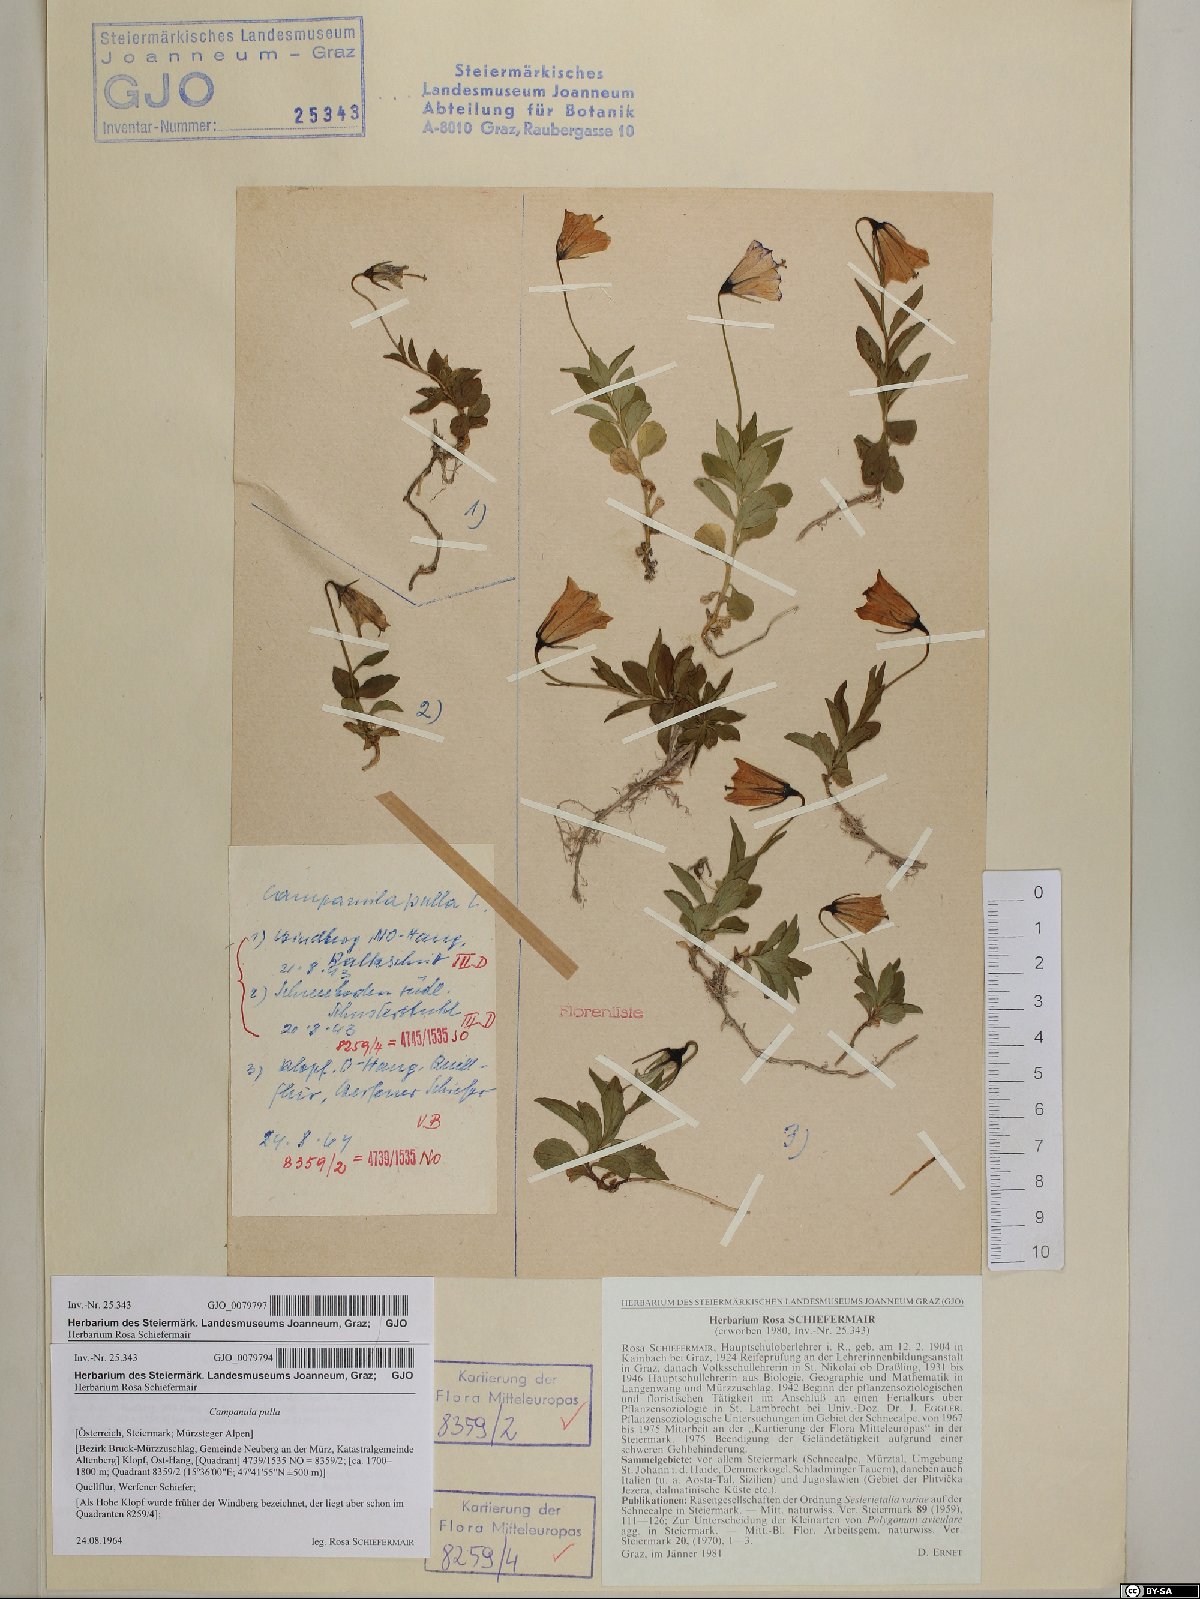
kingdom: Plantae
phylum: Tracheophyta
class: Magnoliopsida
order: Asterales
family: Campanulaceae
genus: Campanula
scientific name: Campanula pulla
